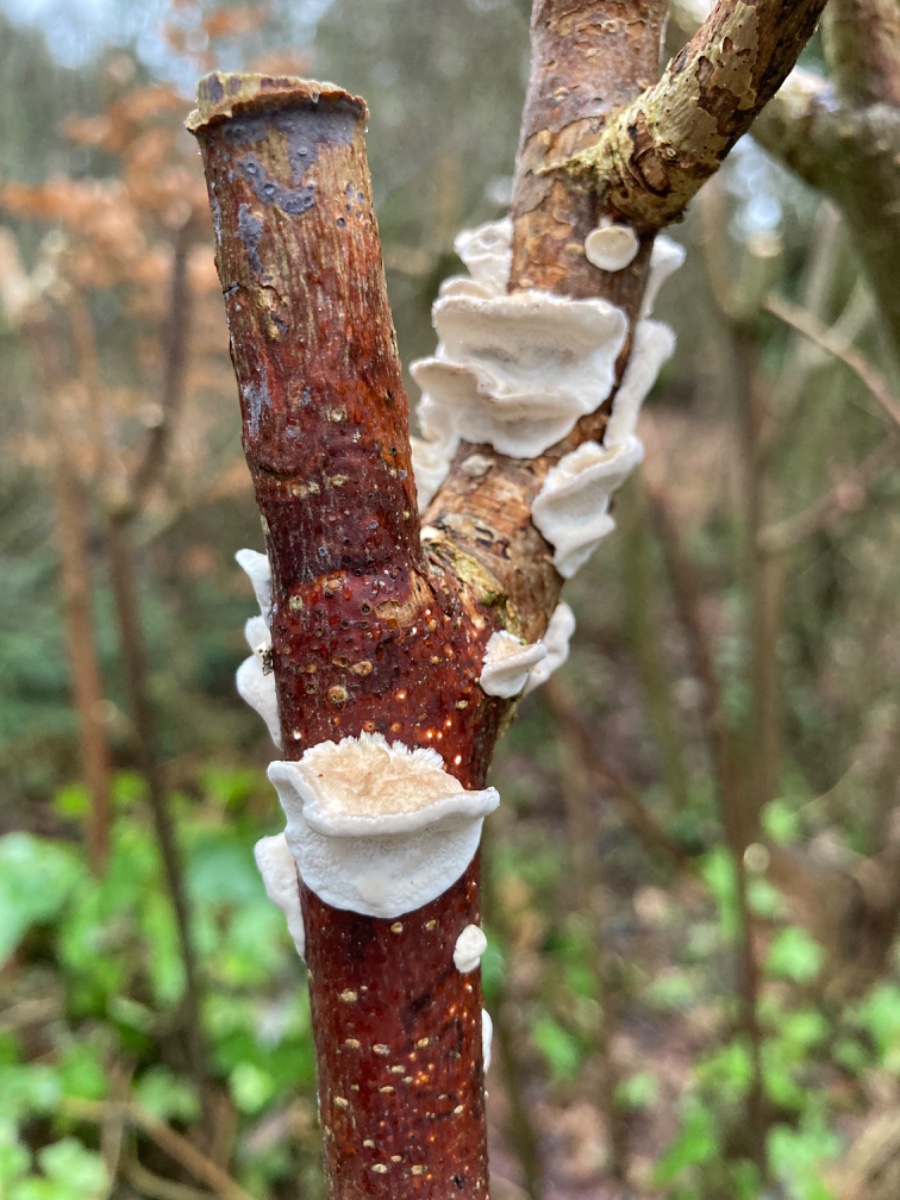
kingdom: Fungi
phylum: Basidiomycota
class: Agaricomycetes
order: Polyporales
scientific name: Polyporales
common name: poresvampordenen
